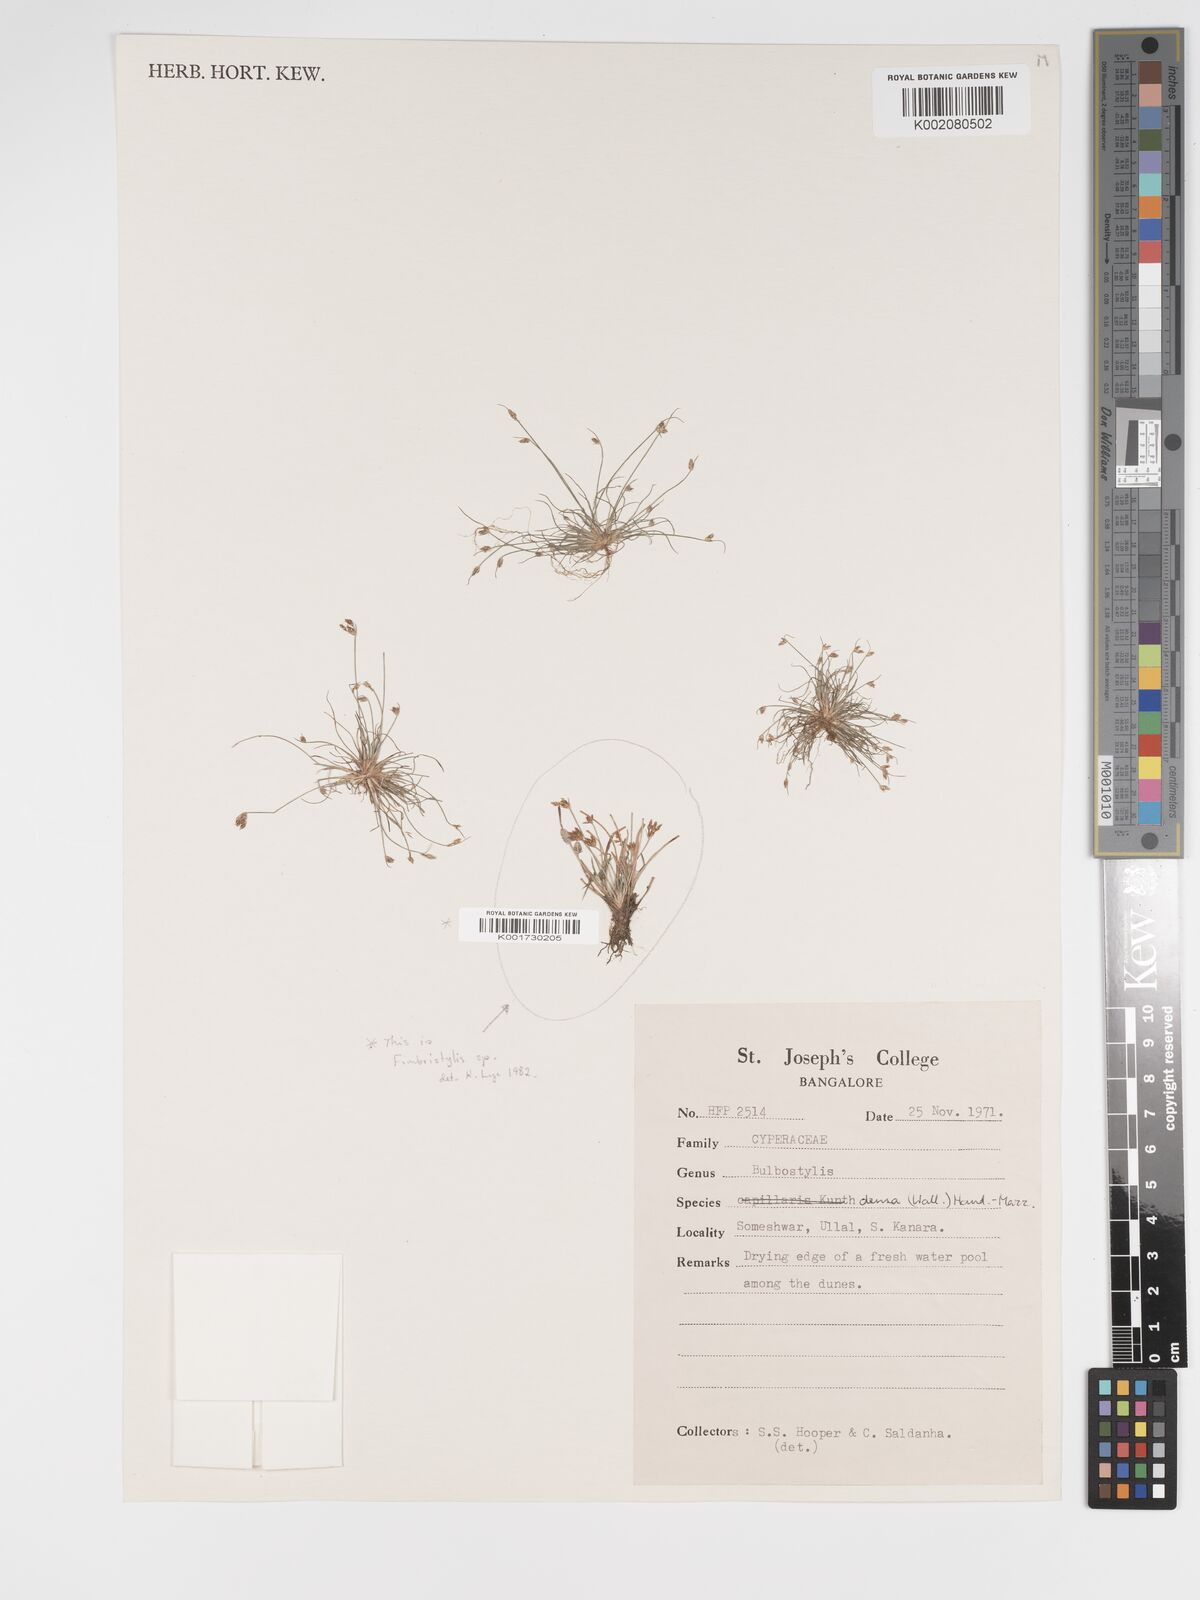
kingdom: Plantae
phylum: Tracheophyta
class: Liliopsida
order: Poales
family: Cyperaceae
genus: Bulbostylis
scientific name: Bulbostylis capillaris
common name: Densetuft hairsedge
